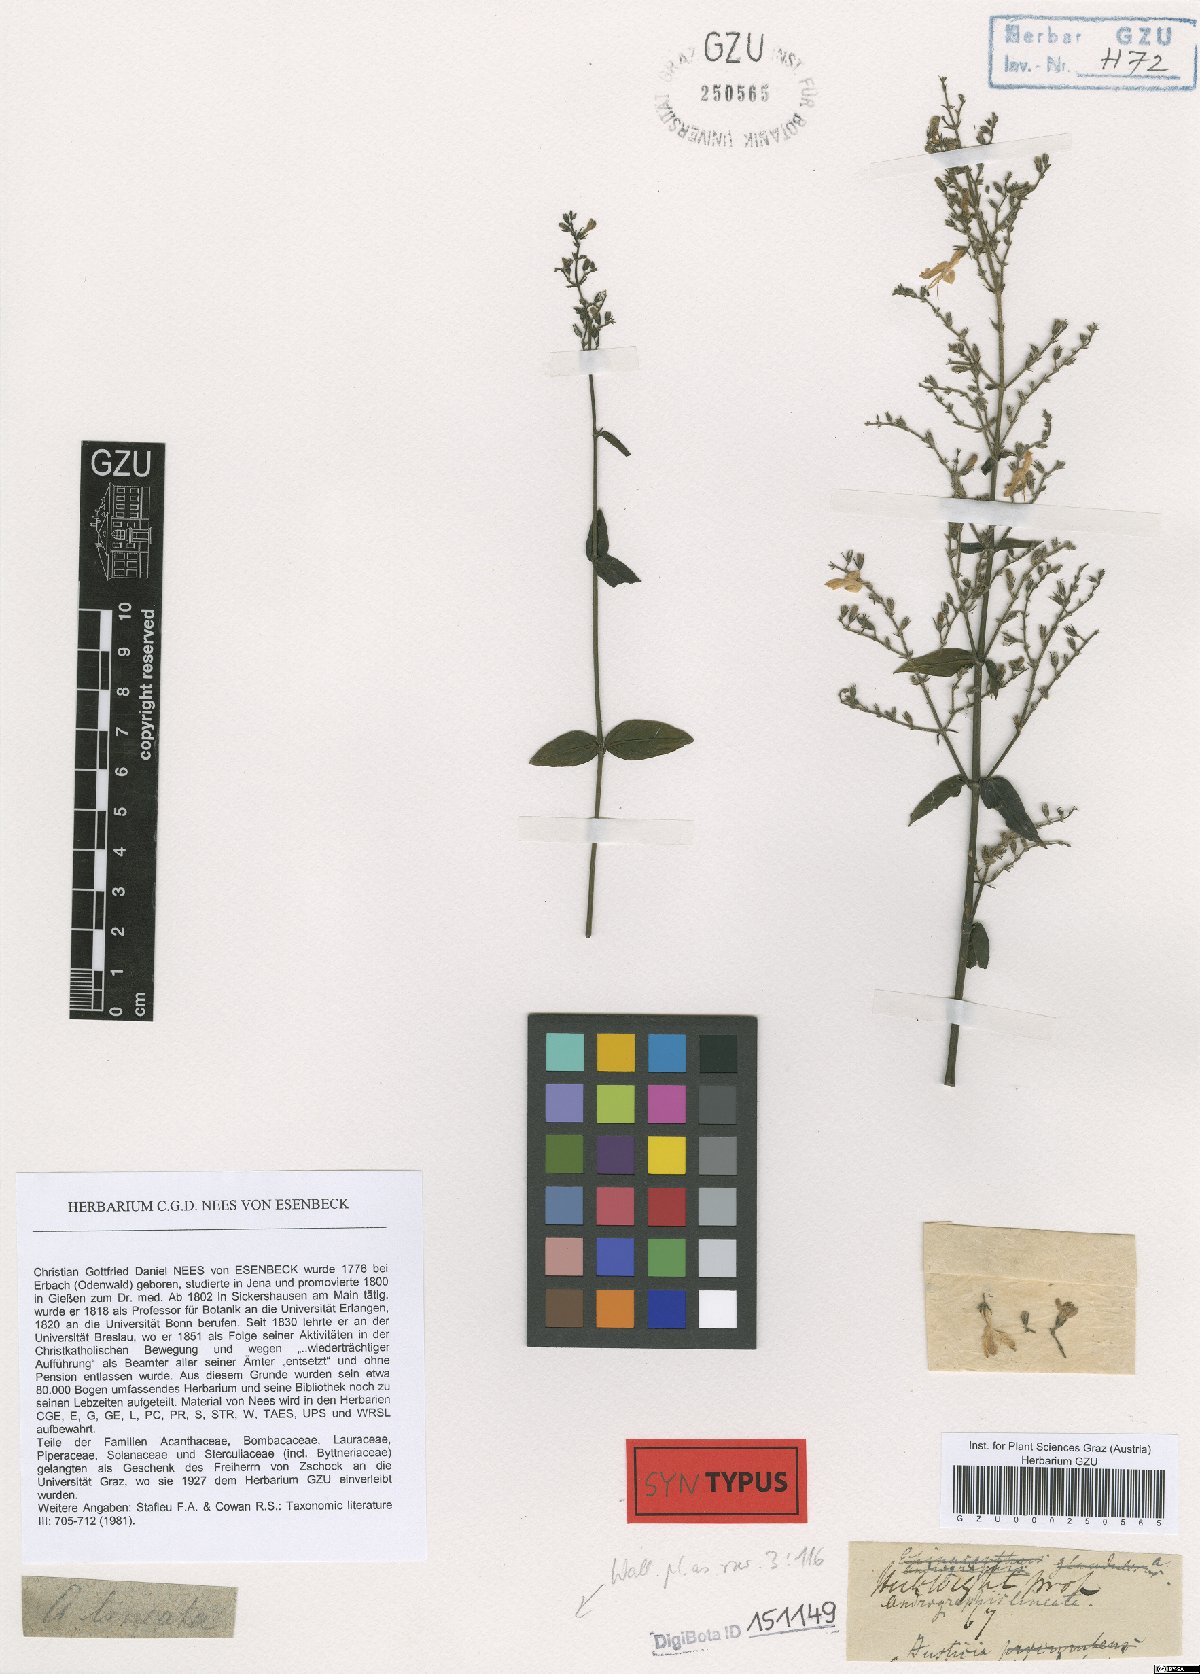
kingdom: Plantae
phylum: Tracheophyta
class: Magnoliopsida
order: Lamiales
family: Acanthaceae
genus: Andrographis
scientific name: Andrographis lineata
